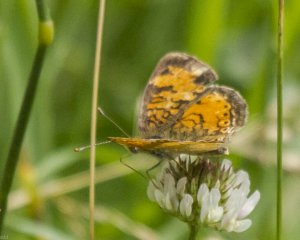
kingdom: Animalia
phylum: Arthropoda
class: Insecta
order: Lepidoptera
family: Nymphalidae
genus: Phyciodes
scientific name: Phyciodes tharos
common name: Northern Crescent
